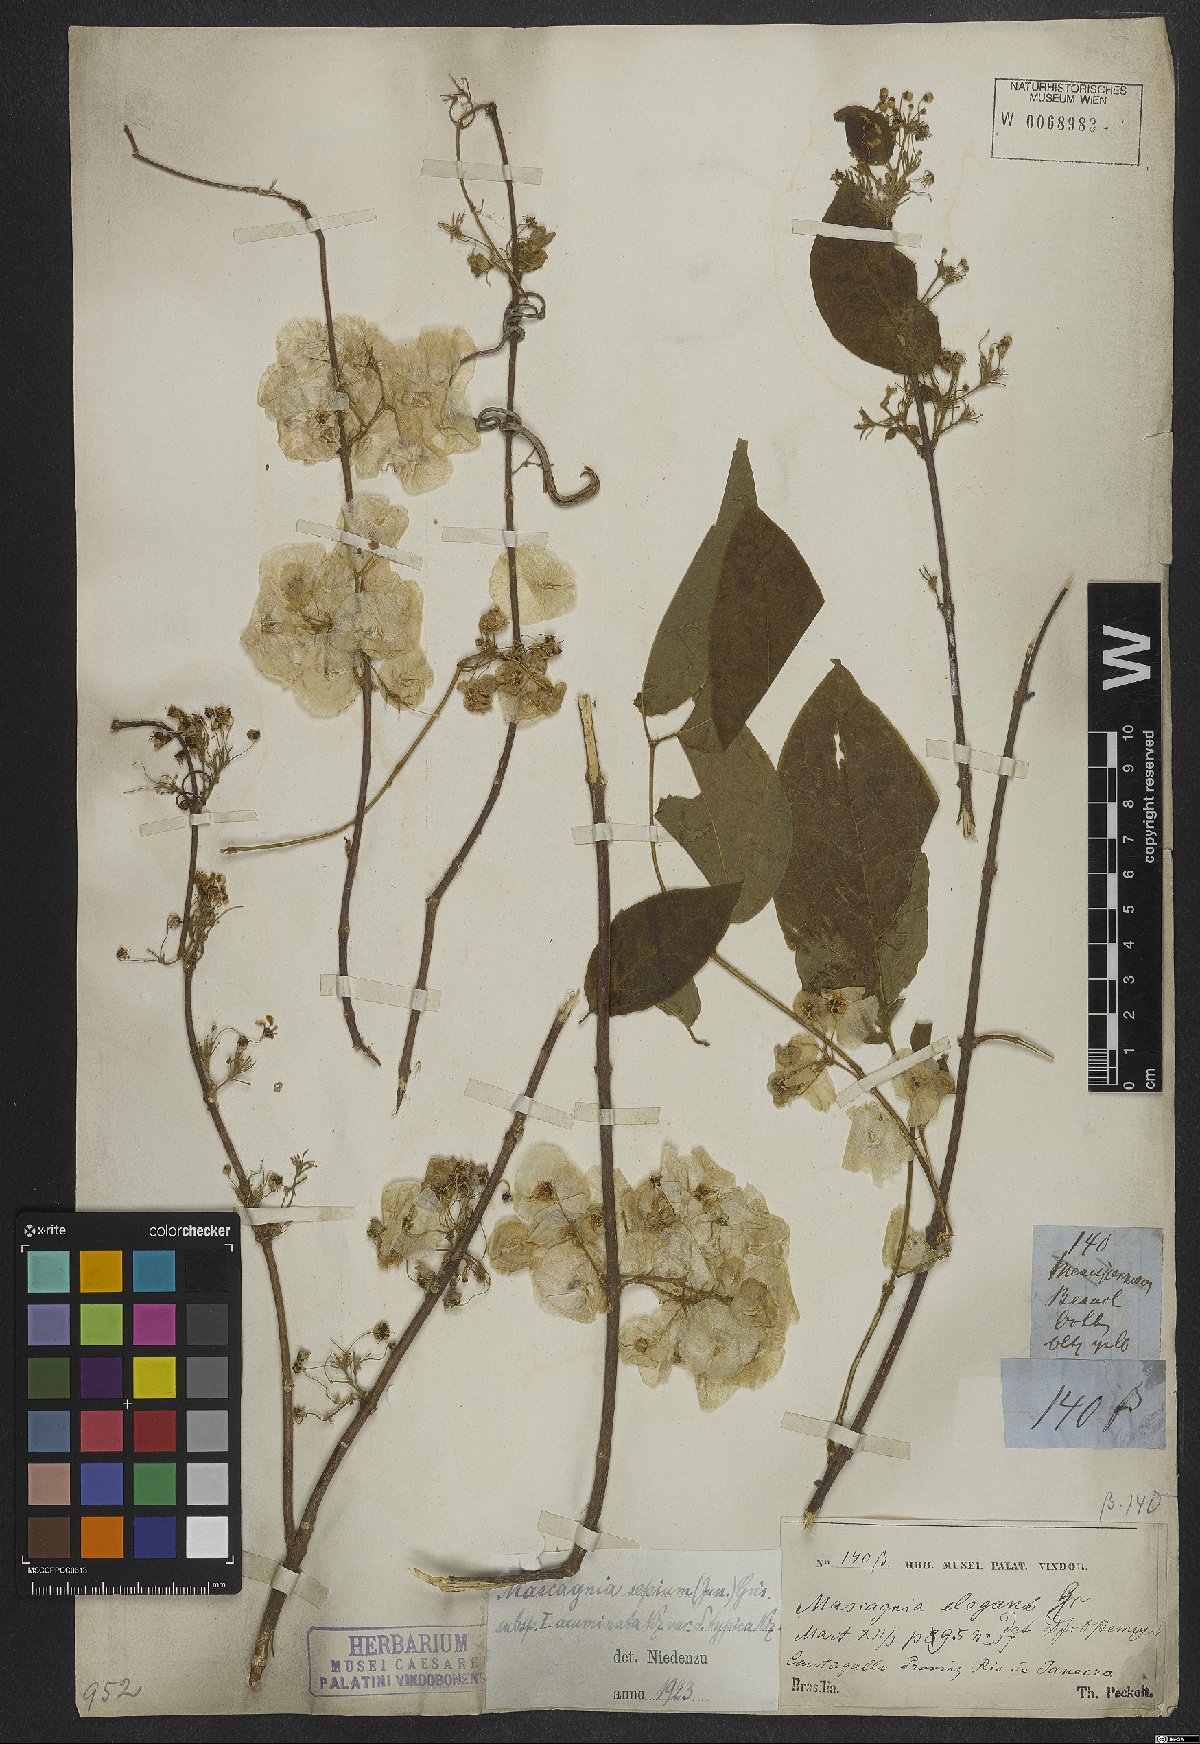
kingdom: Plantae
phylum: Tracheophyta
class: Magnoliopsida
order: Malpighiales
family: Malpighiaceae
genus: Mascagnia
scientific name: Mascagnia sepium
